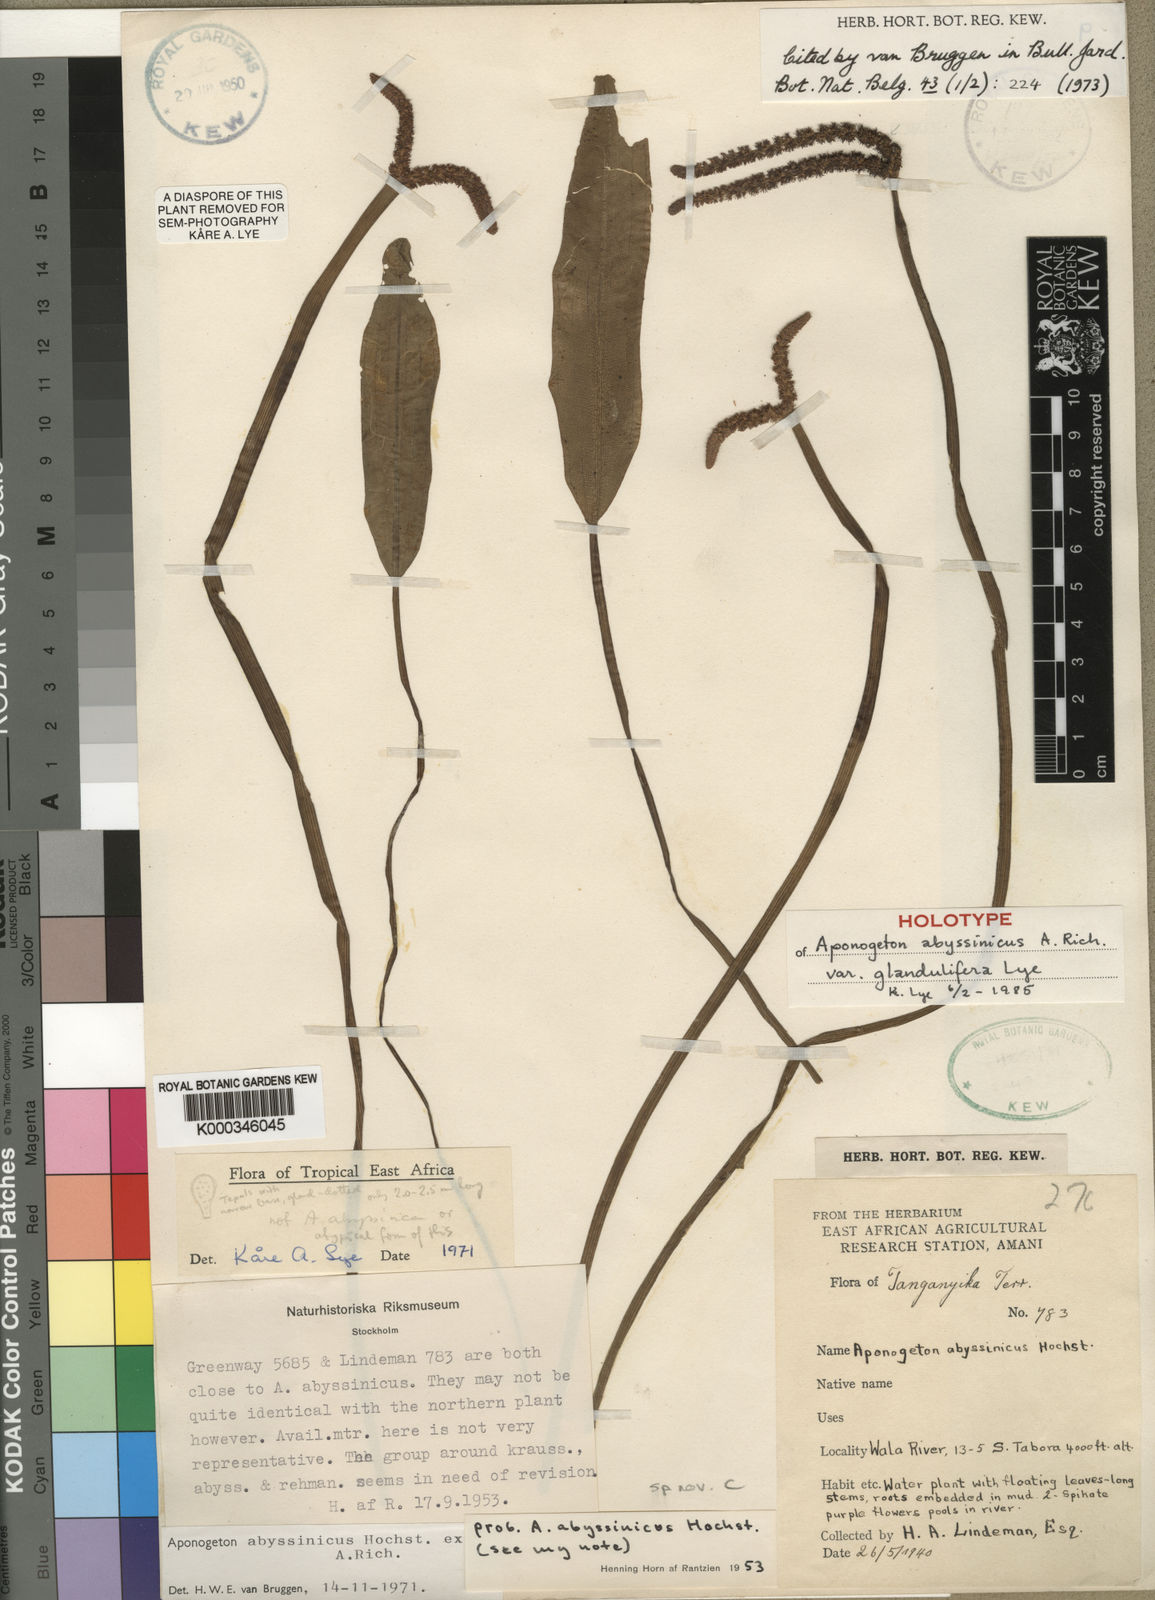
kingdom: Plantae
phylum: Tracheophyta
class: Liliopsida
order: Alismatales
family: Aponogetonaceae
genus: Aponogeton
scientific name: Aponogeton abyssinicus
